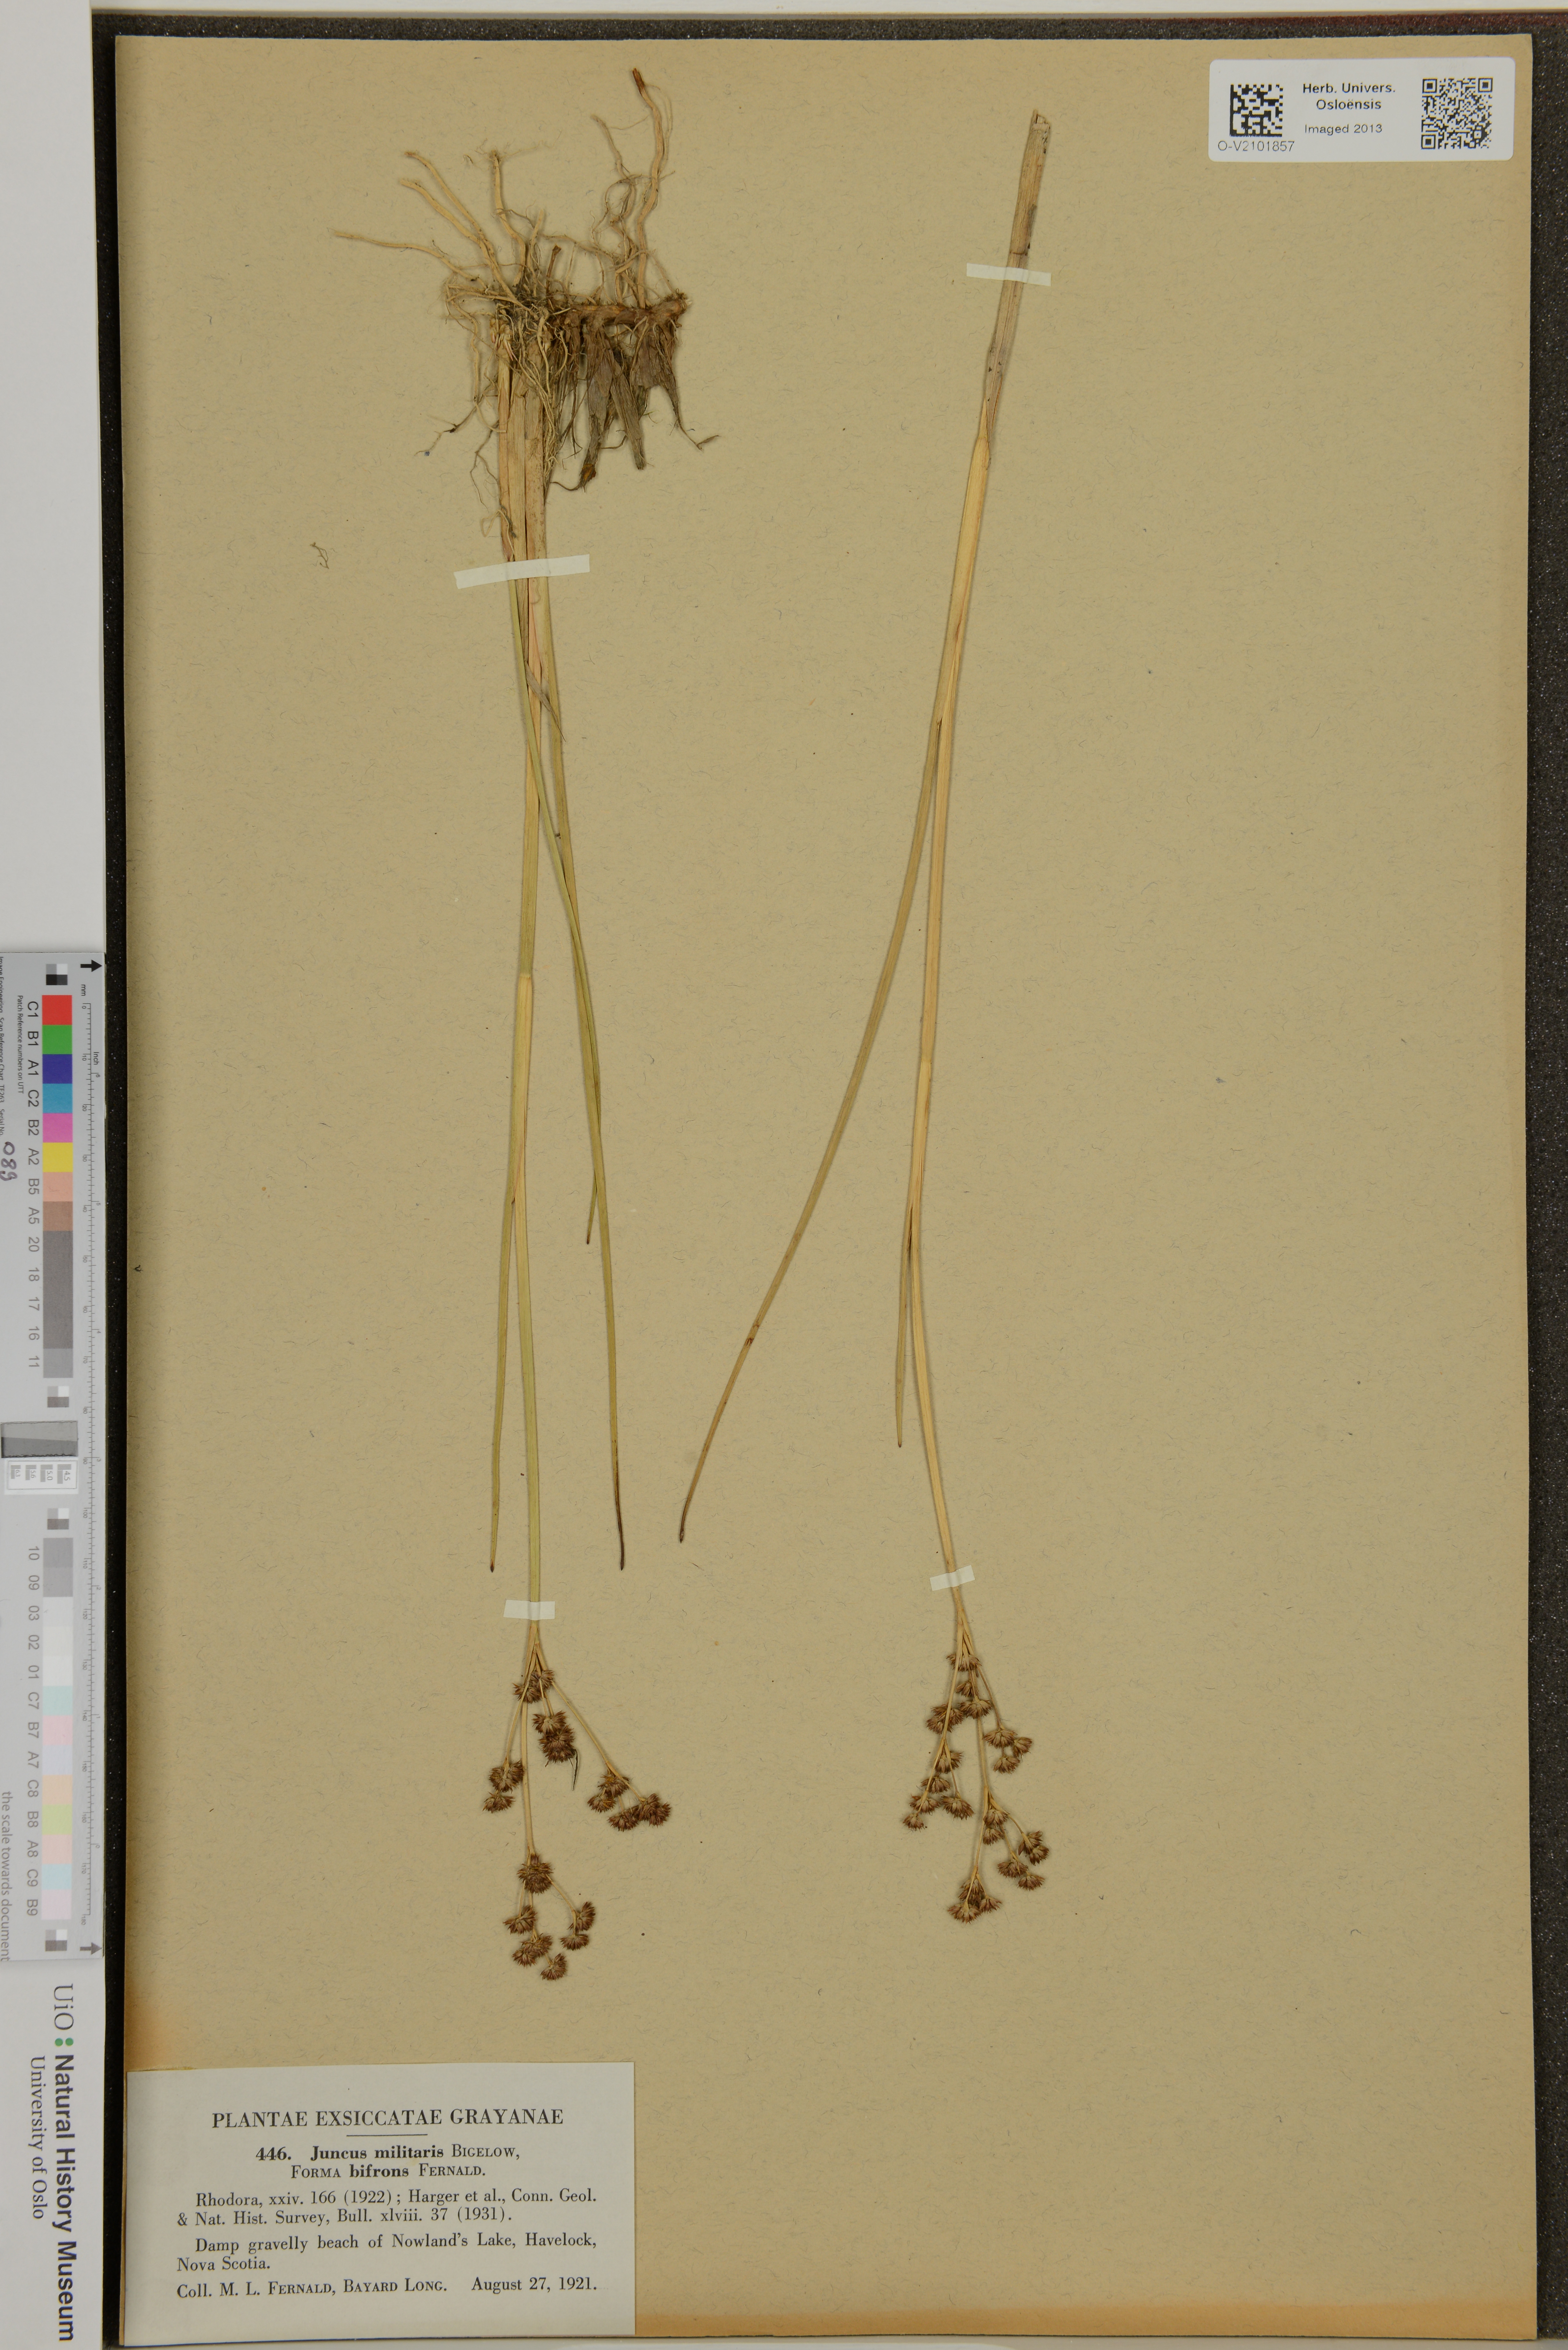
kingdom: Plantae
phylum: Tracheophyta
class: Liliopsida
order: Poales
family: Juncaceae
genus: Juncus
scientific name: Juncus militaris
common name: Bayonet rush
